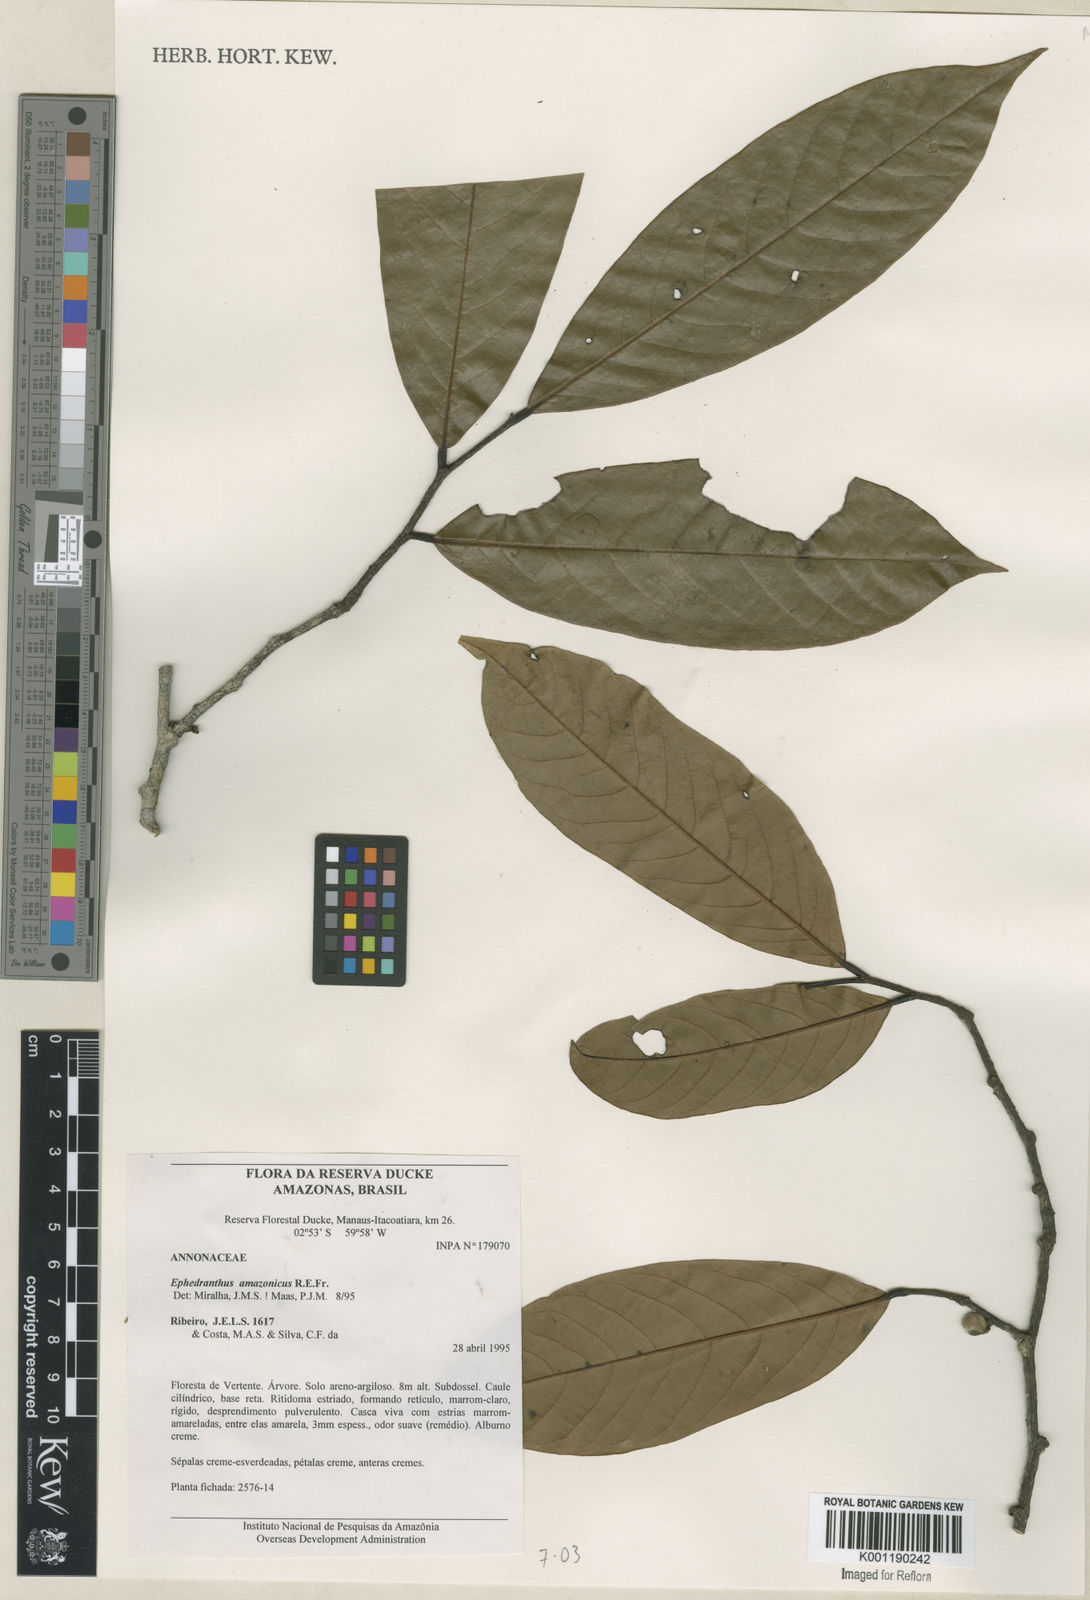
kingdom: Plantae
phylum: Tracheophyta
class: Magnoliopsida
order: Magnoliales
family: Annonaceae
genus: Ephedranthus
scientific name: Ephedranthus amazonicus
